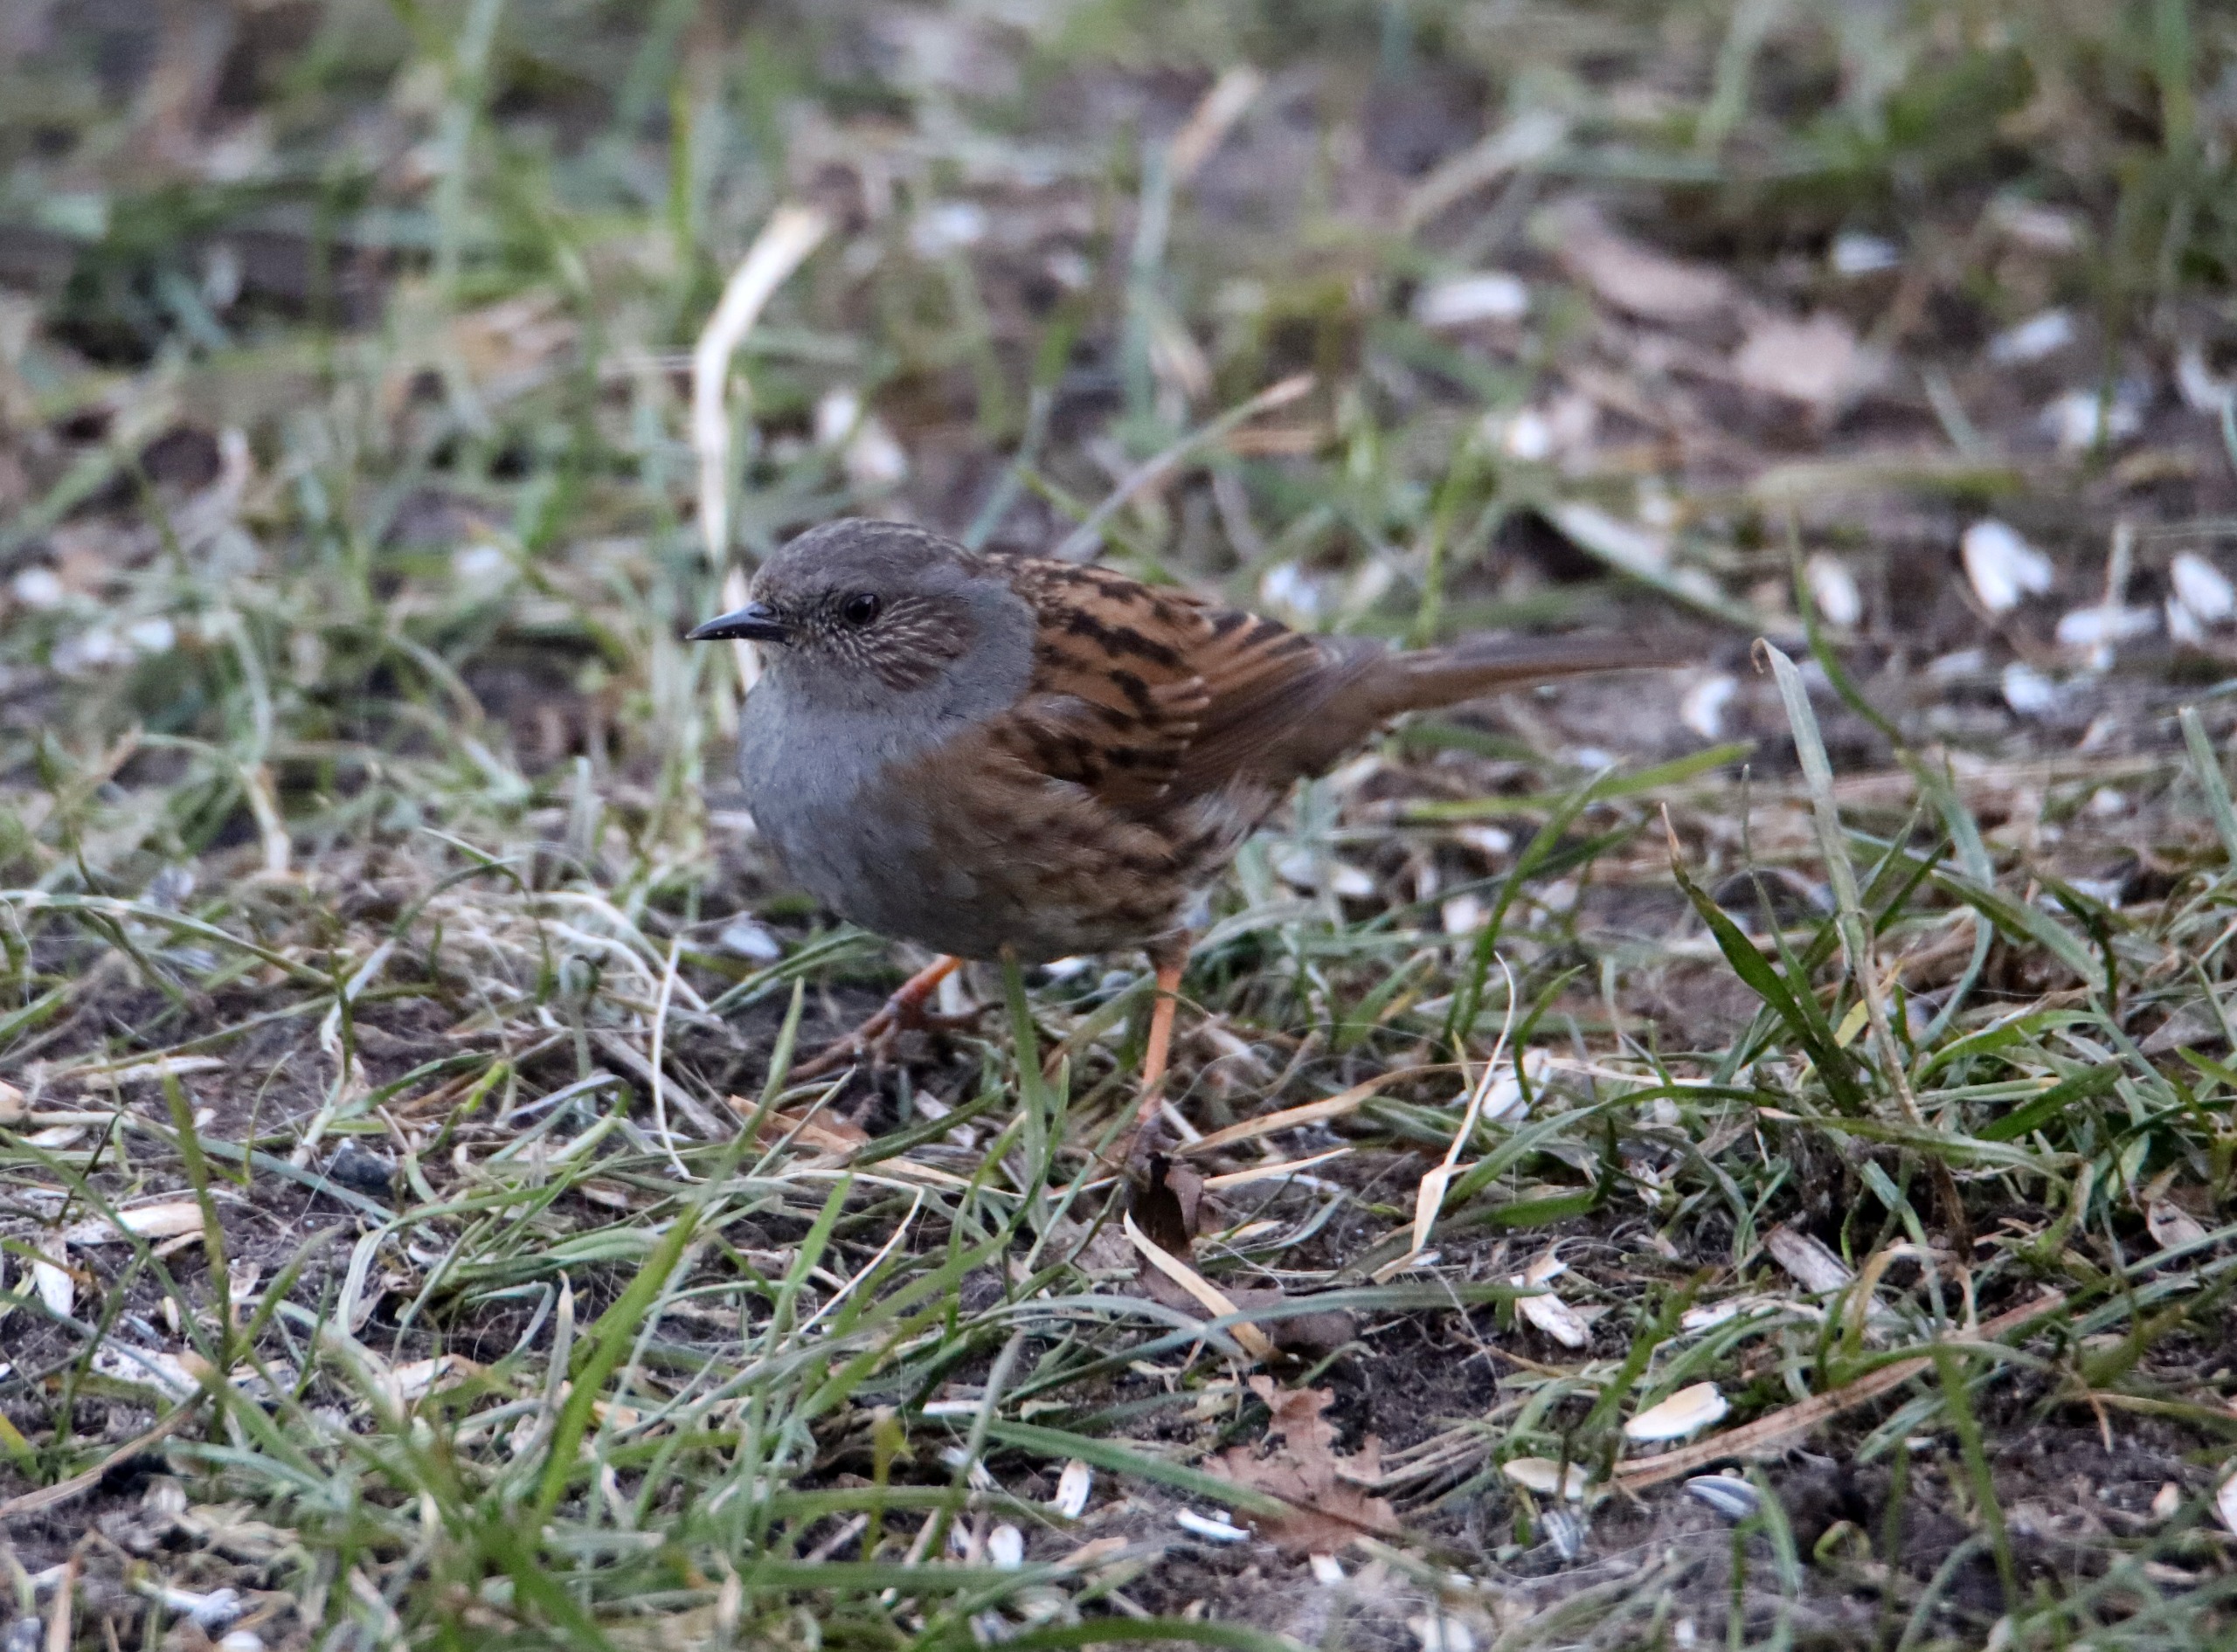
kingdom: Animalia
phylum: Chordata
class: Aves
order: Passeriformes
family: Prunellidae
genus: Prunella
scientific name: Prunella modularis
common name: Jernspurv
